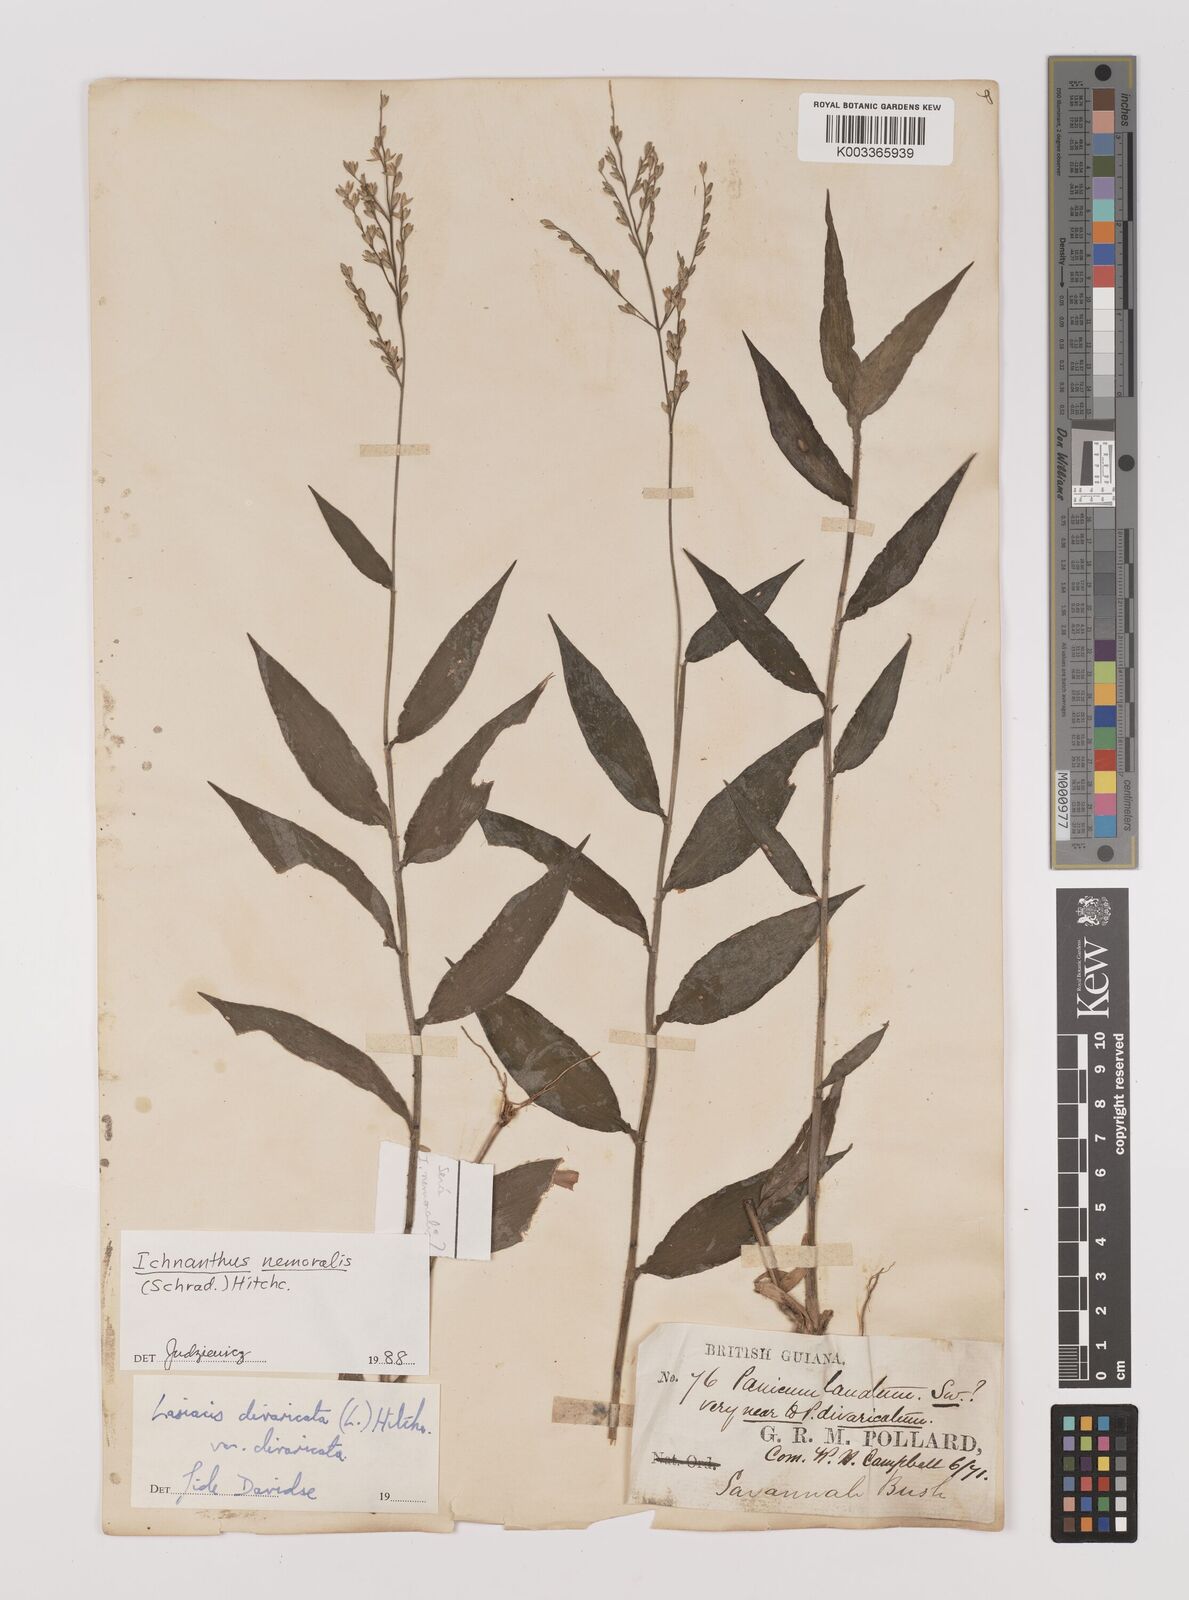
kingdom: Plantae
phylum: Tracheophyta
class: Liliopsida
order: Poales
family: Poaceae
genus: Ichnanthus
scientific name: Ichnanthus nemoralis
